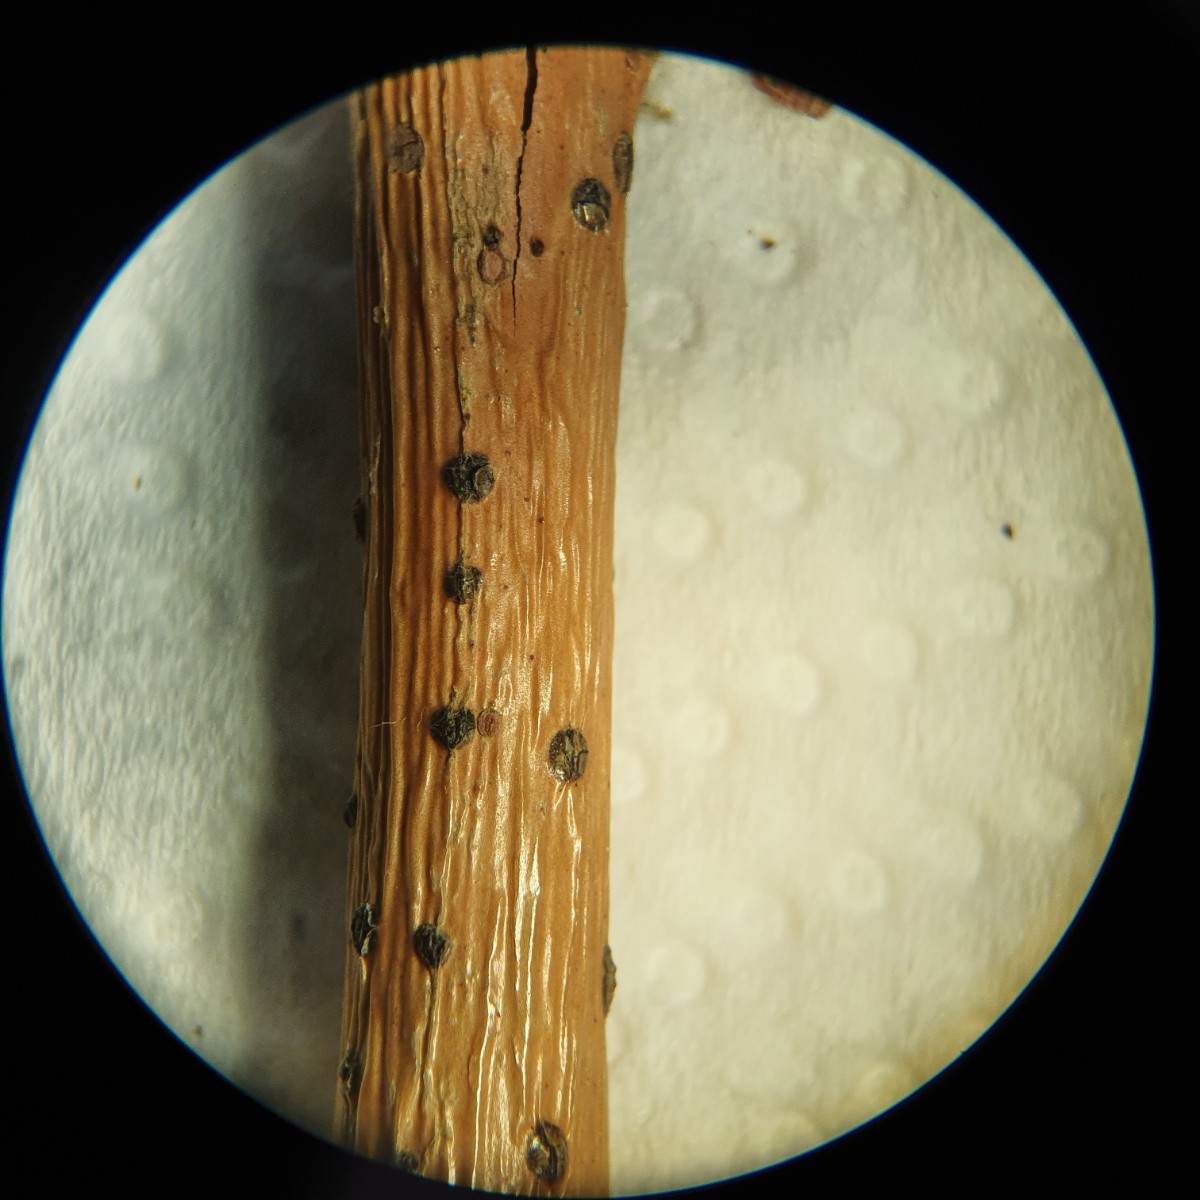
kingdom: Fungi
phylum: Ascomycota
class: Sordariomycetes
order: Diaporthales
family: Gnomoniaceae
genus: Plagiostoma
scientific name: Plagiostoma salicellum
